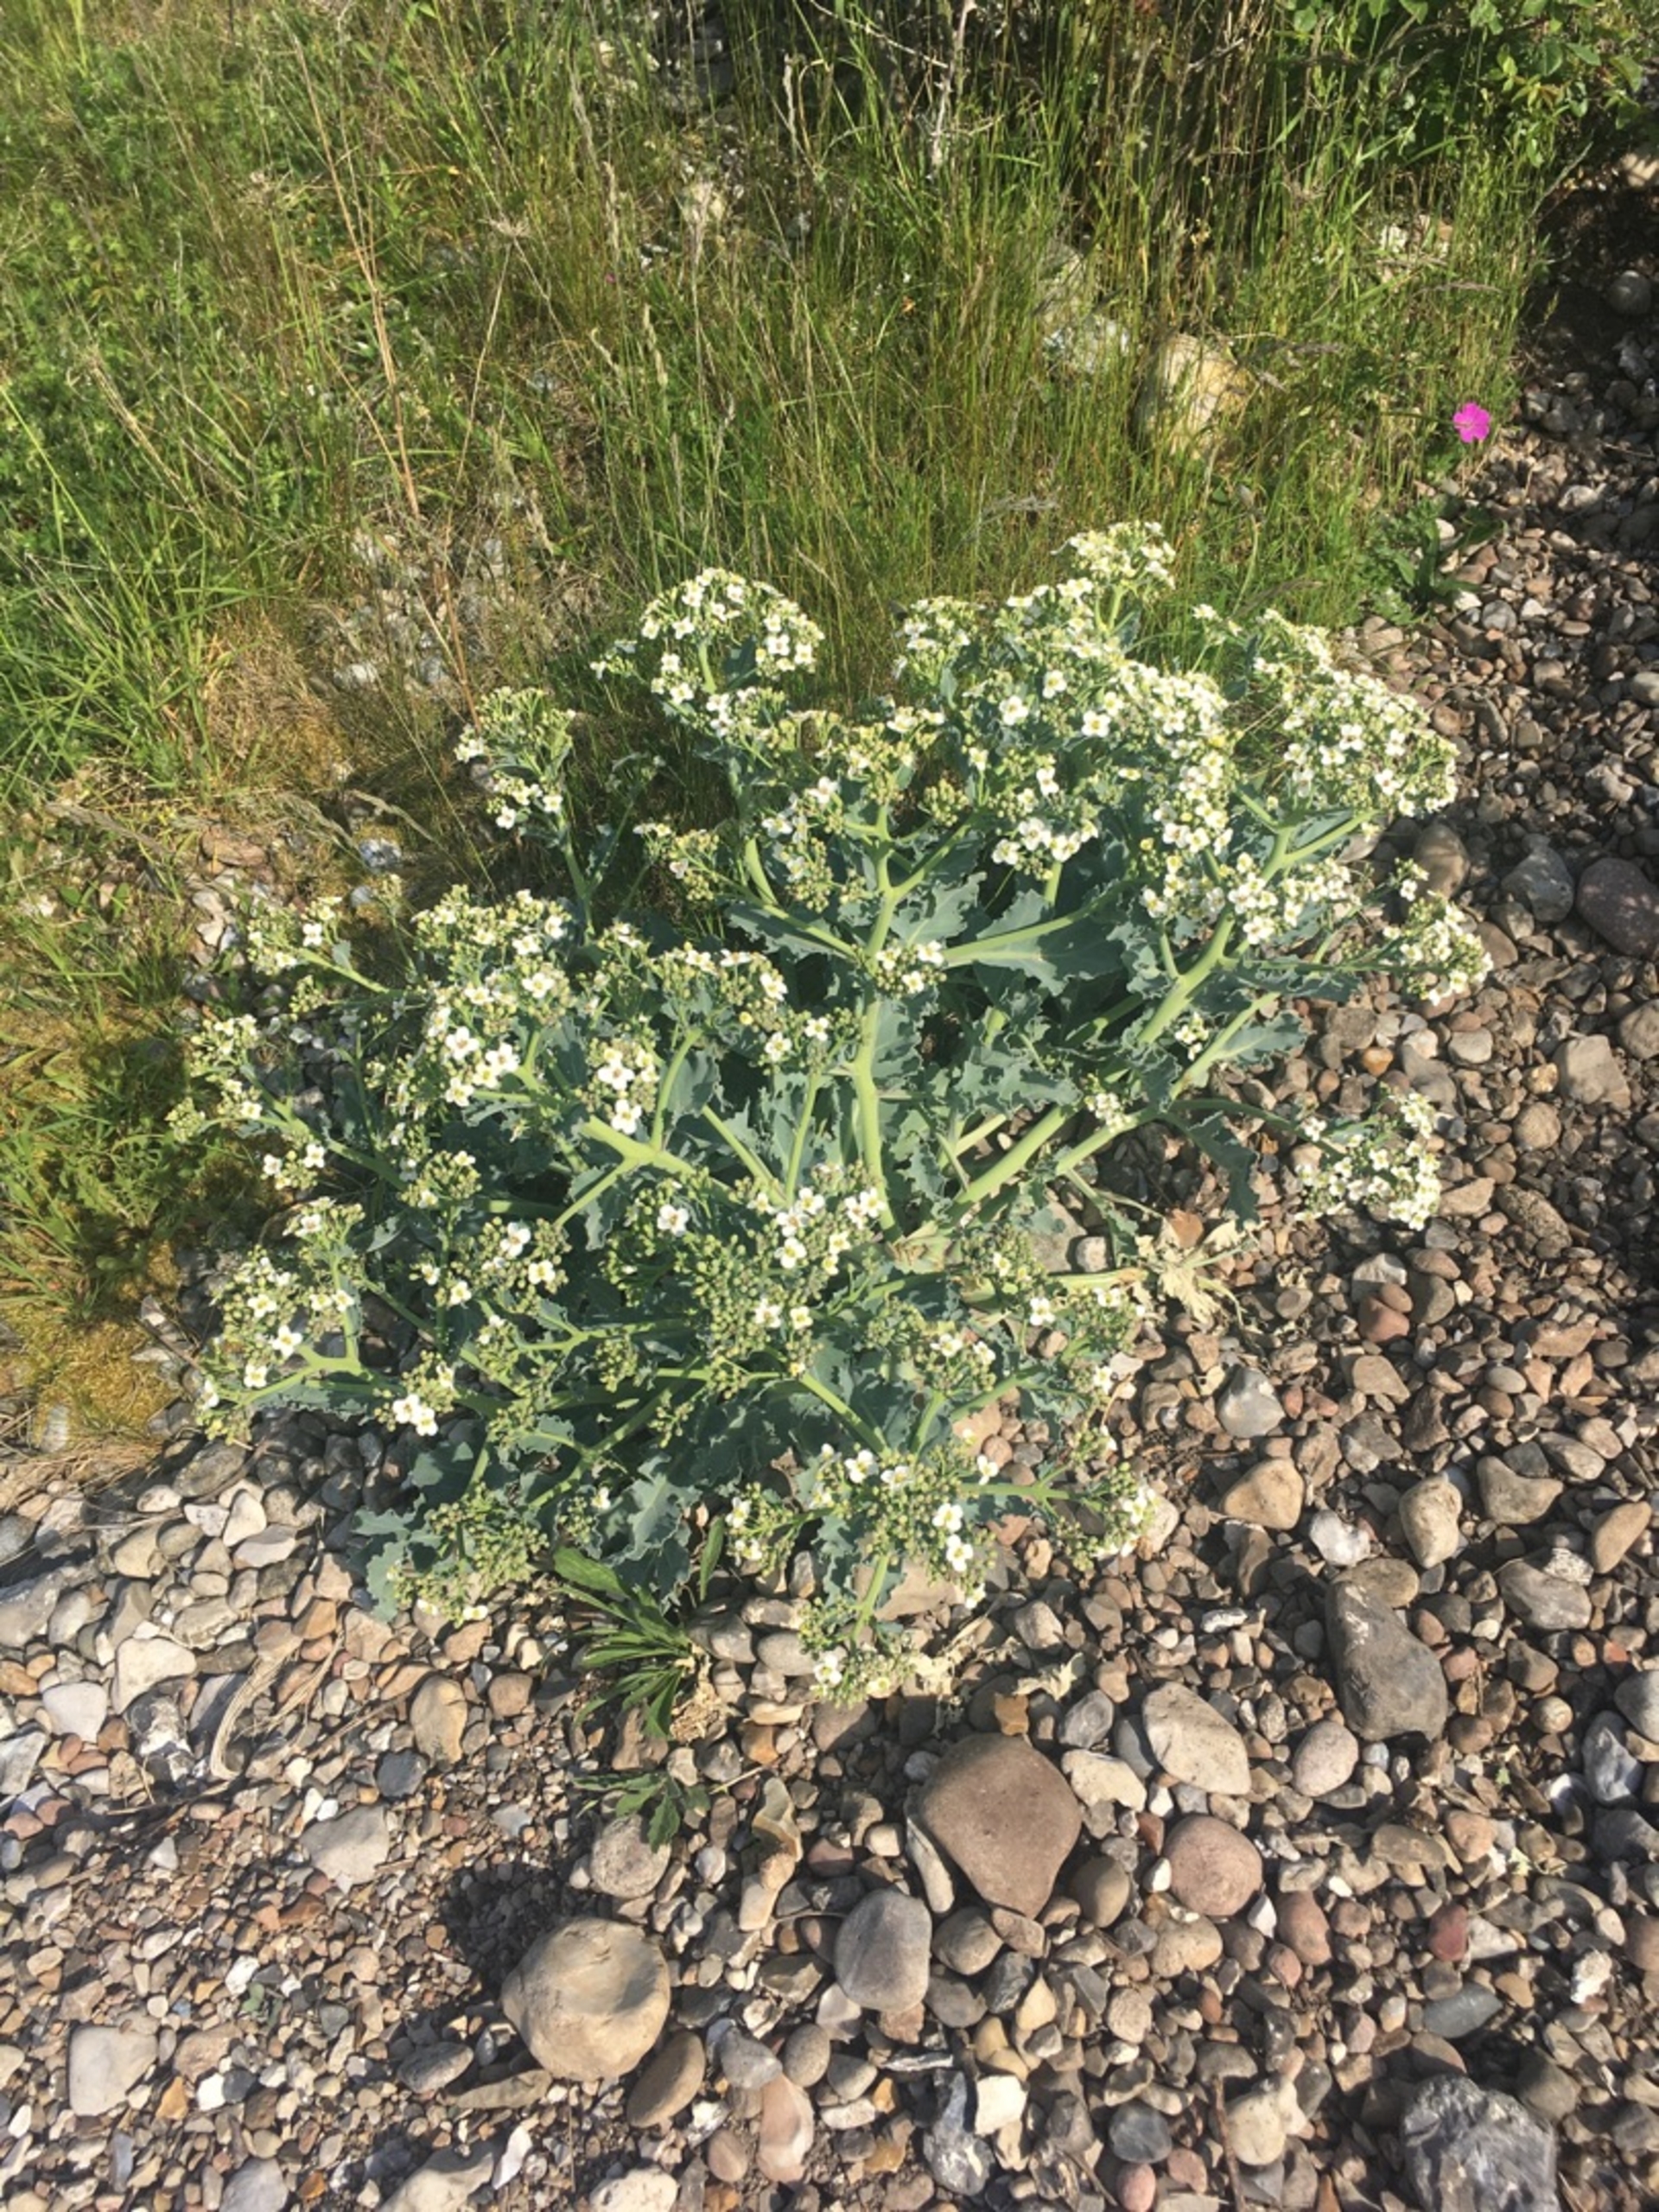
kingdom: Plantae
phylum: Tracheophyta
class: Magnoliopsida
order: Brassicales
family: Brassicaceae
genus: Crambe
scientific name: Crambe maritima
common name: Strandkål
